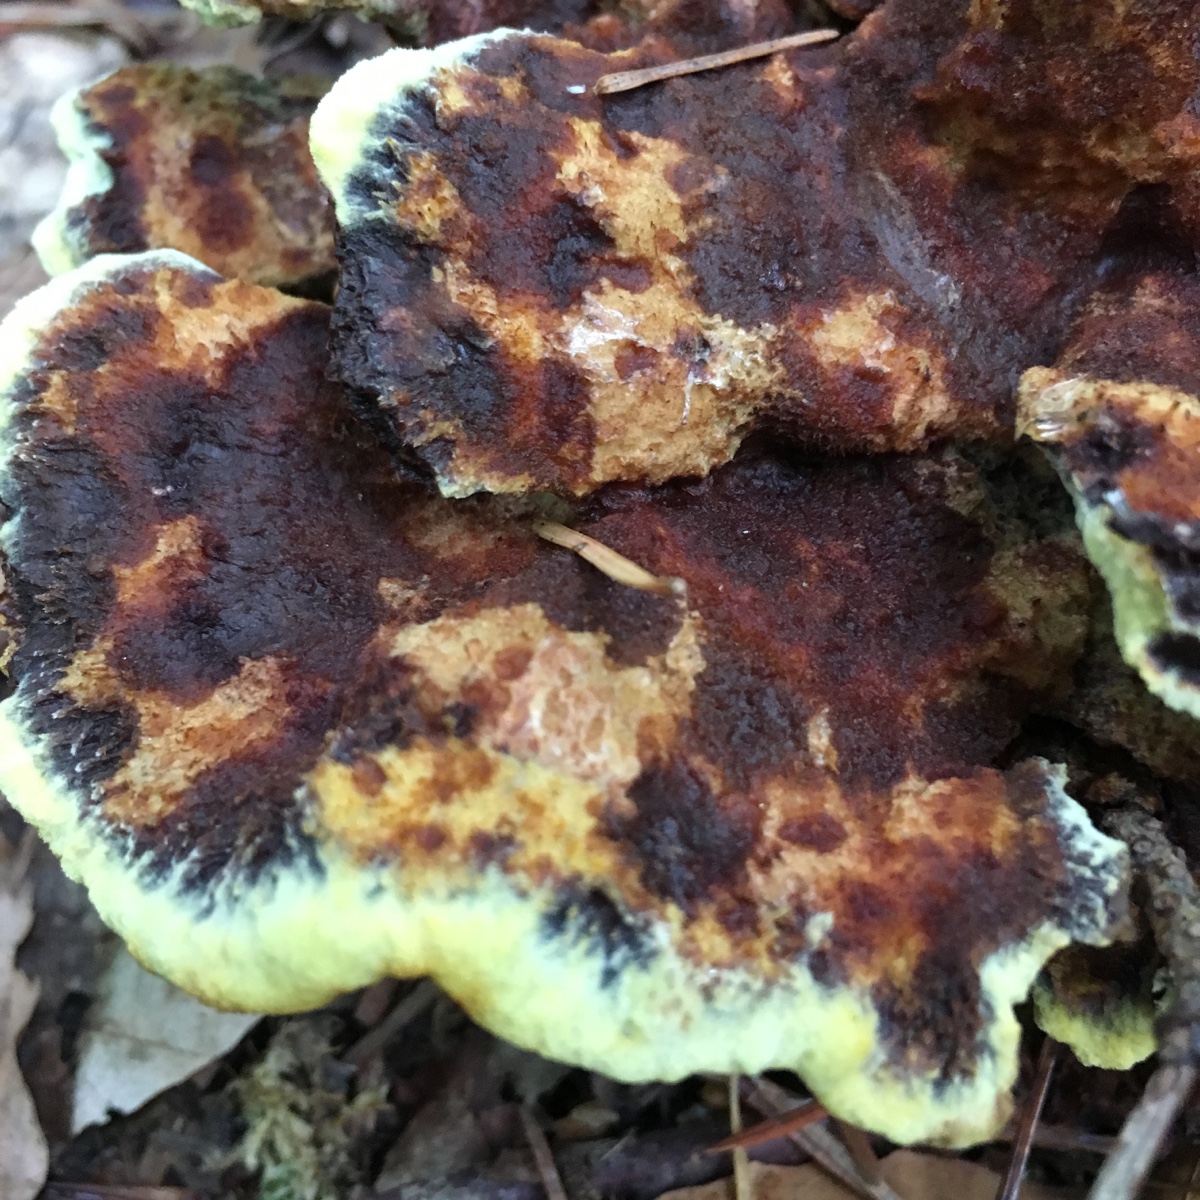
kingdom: Fungi
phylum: Basidiomycota
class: Agaricomycetes
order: Polyporales
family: Laetiporaceae
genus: Phaeolus
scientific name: Phaeolus schweinitzii
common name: brunporesvamp
